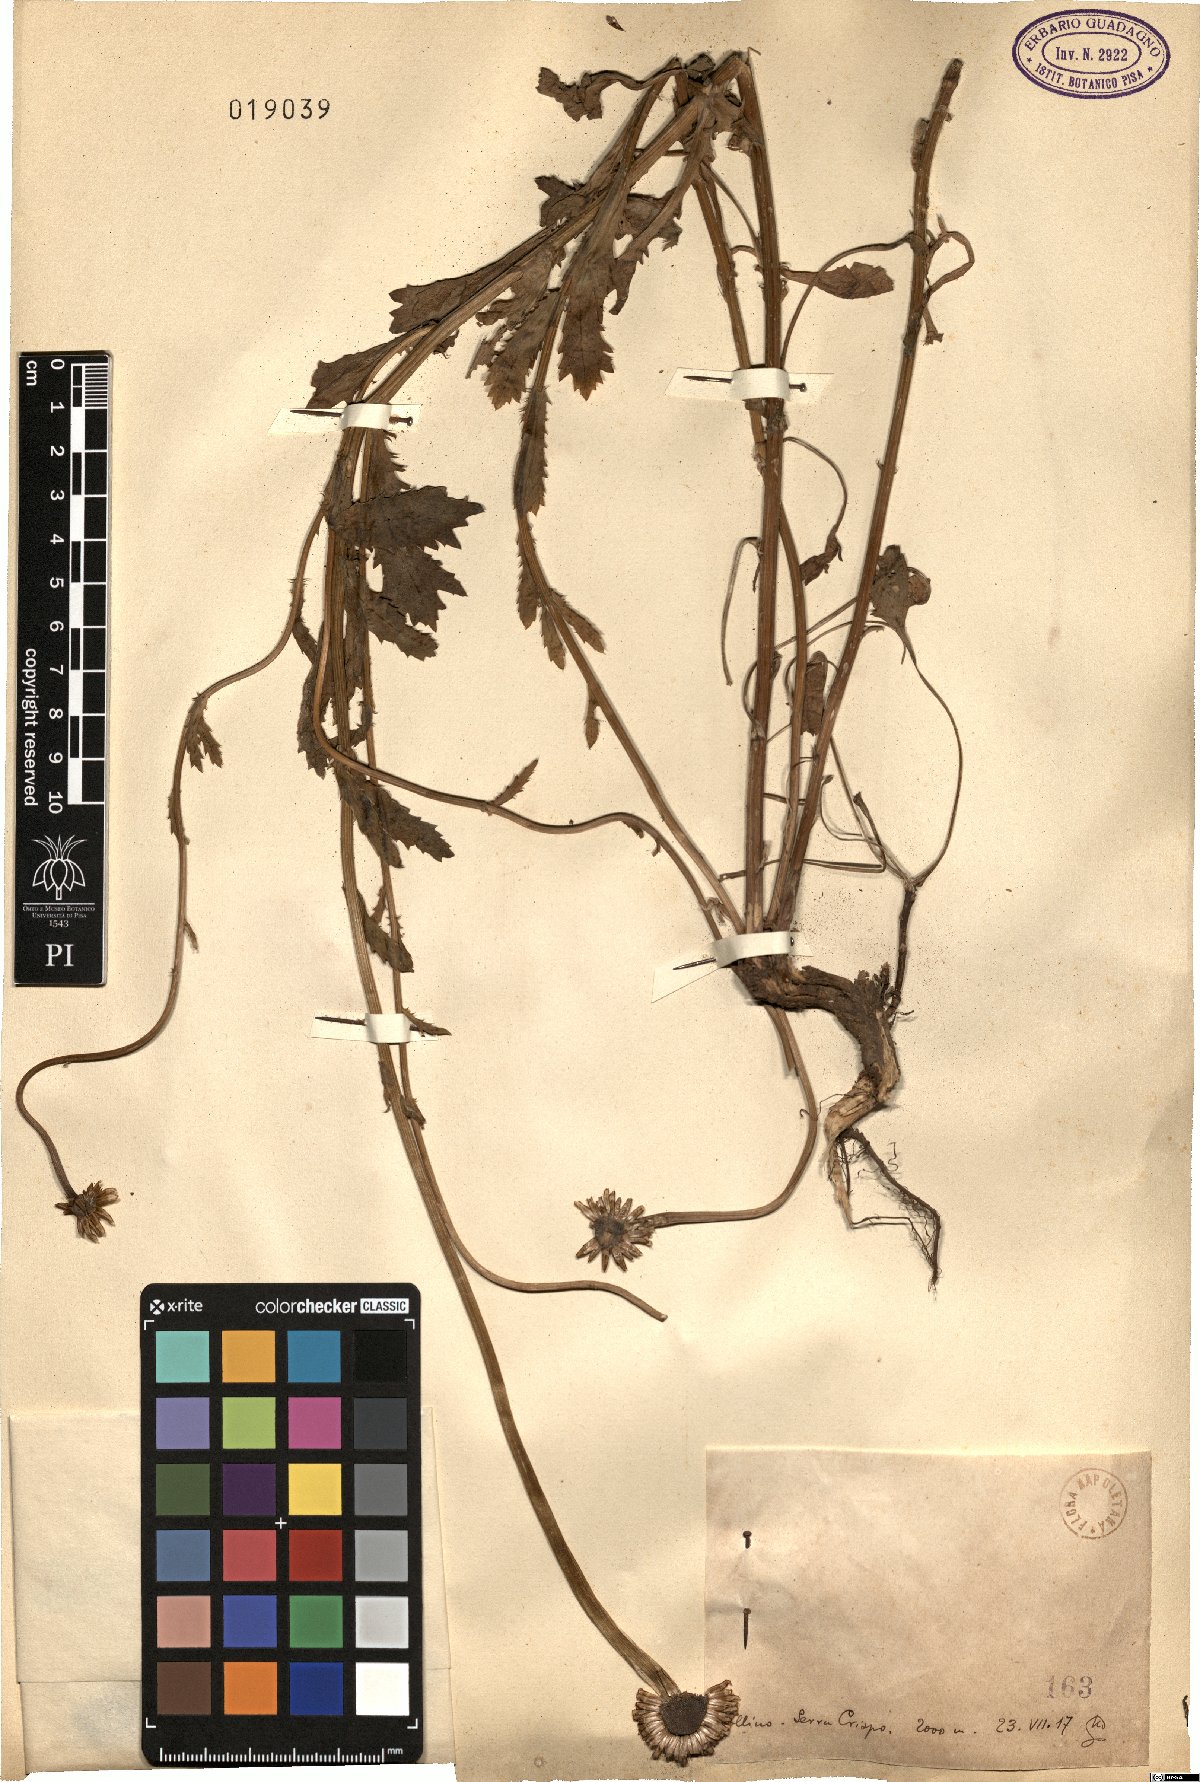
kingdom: Plantae
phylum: Tracheophyta
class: Magnoliopsida
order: Asterales
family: Asteraceae
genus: Pyrethrum
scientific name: Pyrethrum
